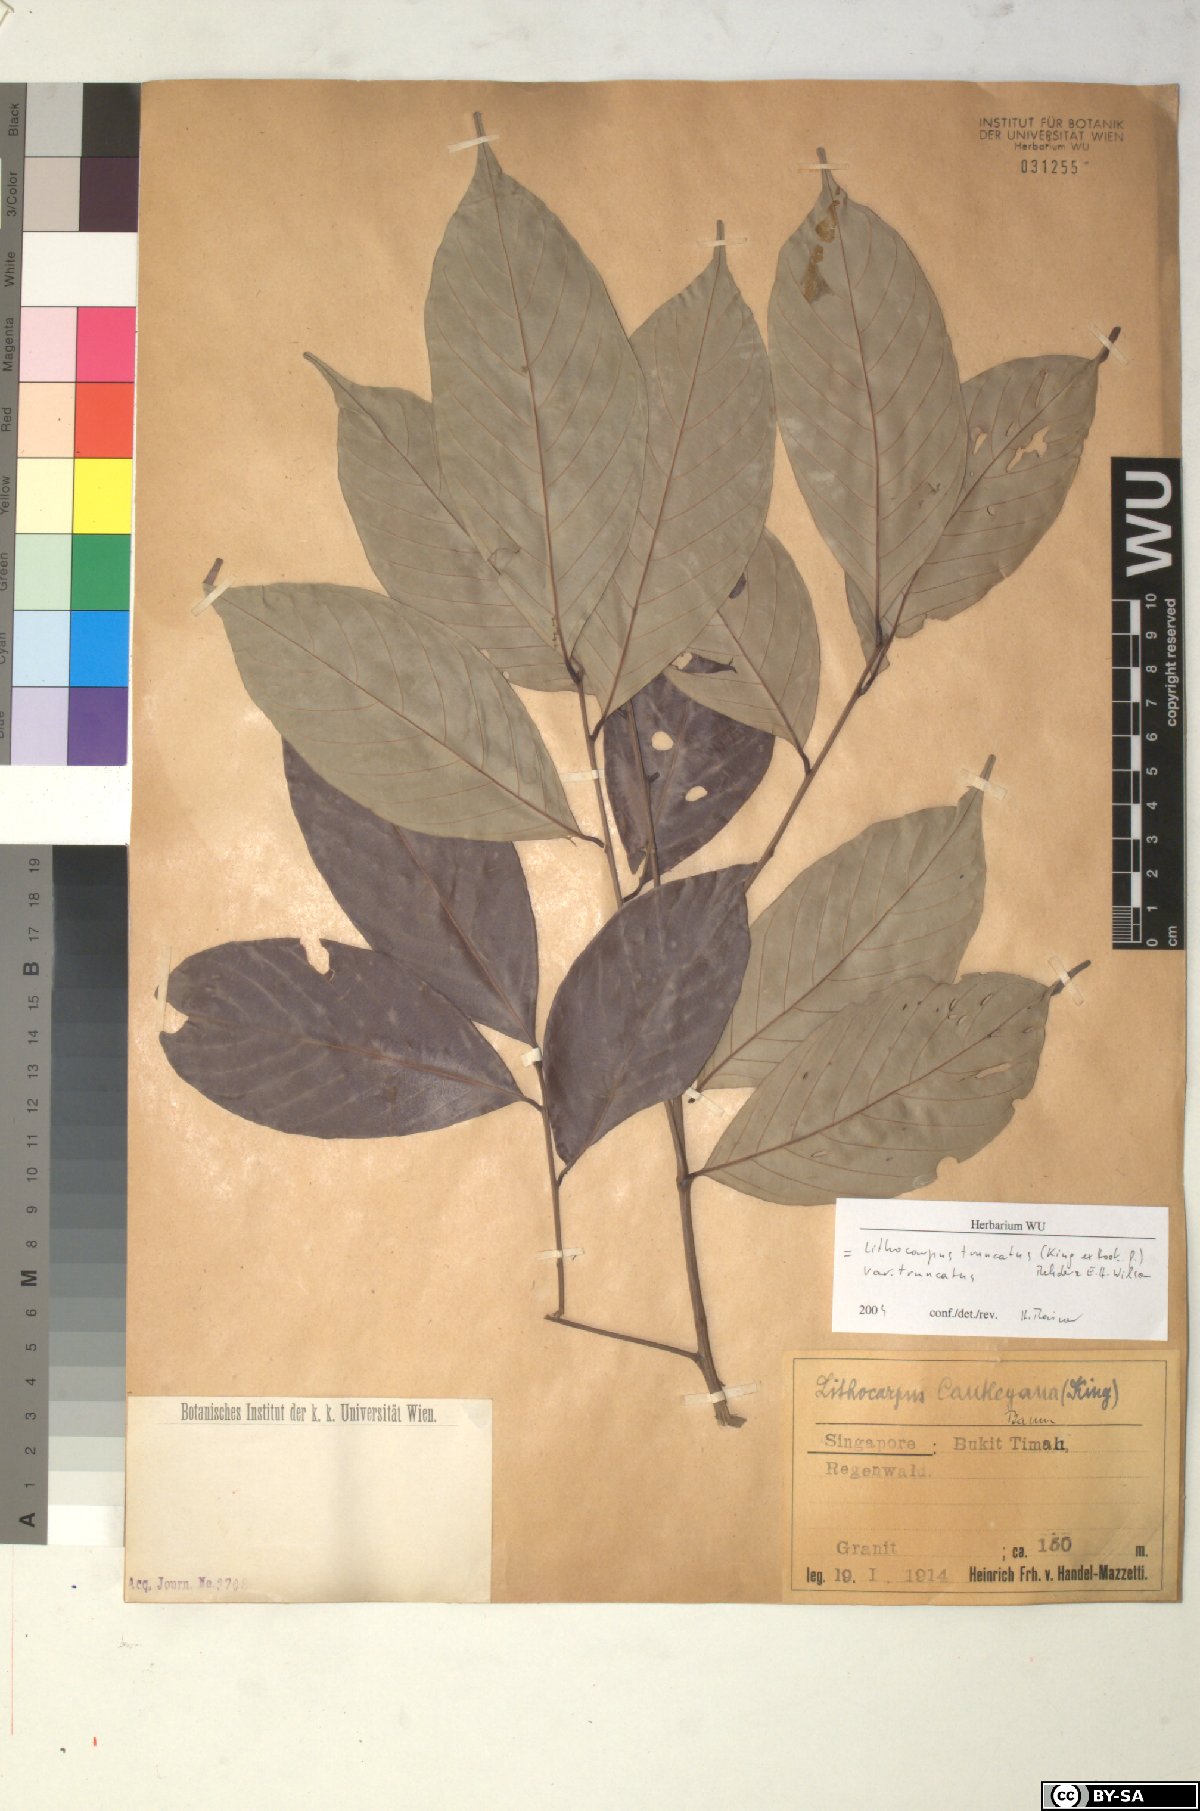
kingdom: Plantae
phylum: Tracheophyta
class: Magnoliopsida
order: Fagales
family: Fagaceae
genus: Lithocarpus
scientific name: Lithocarpus truncatus
